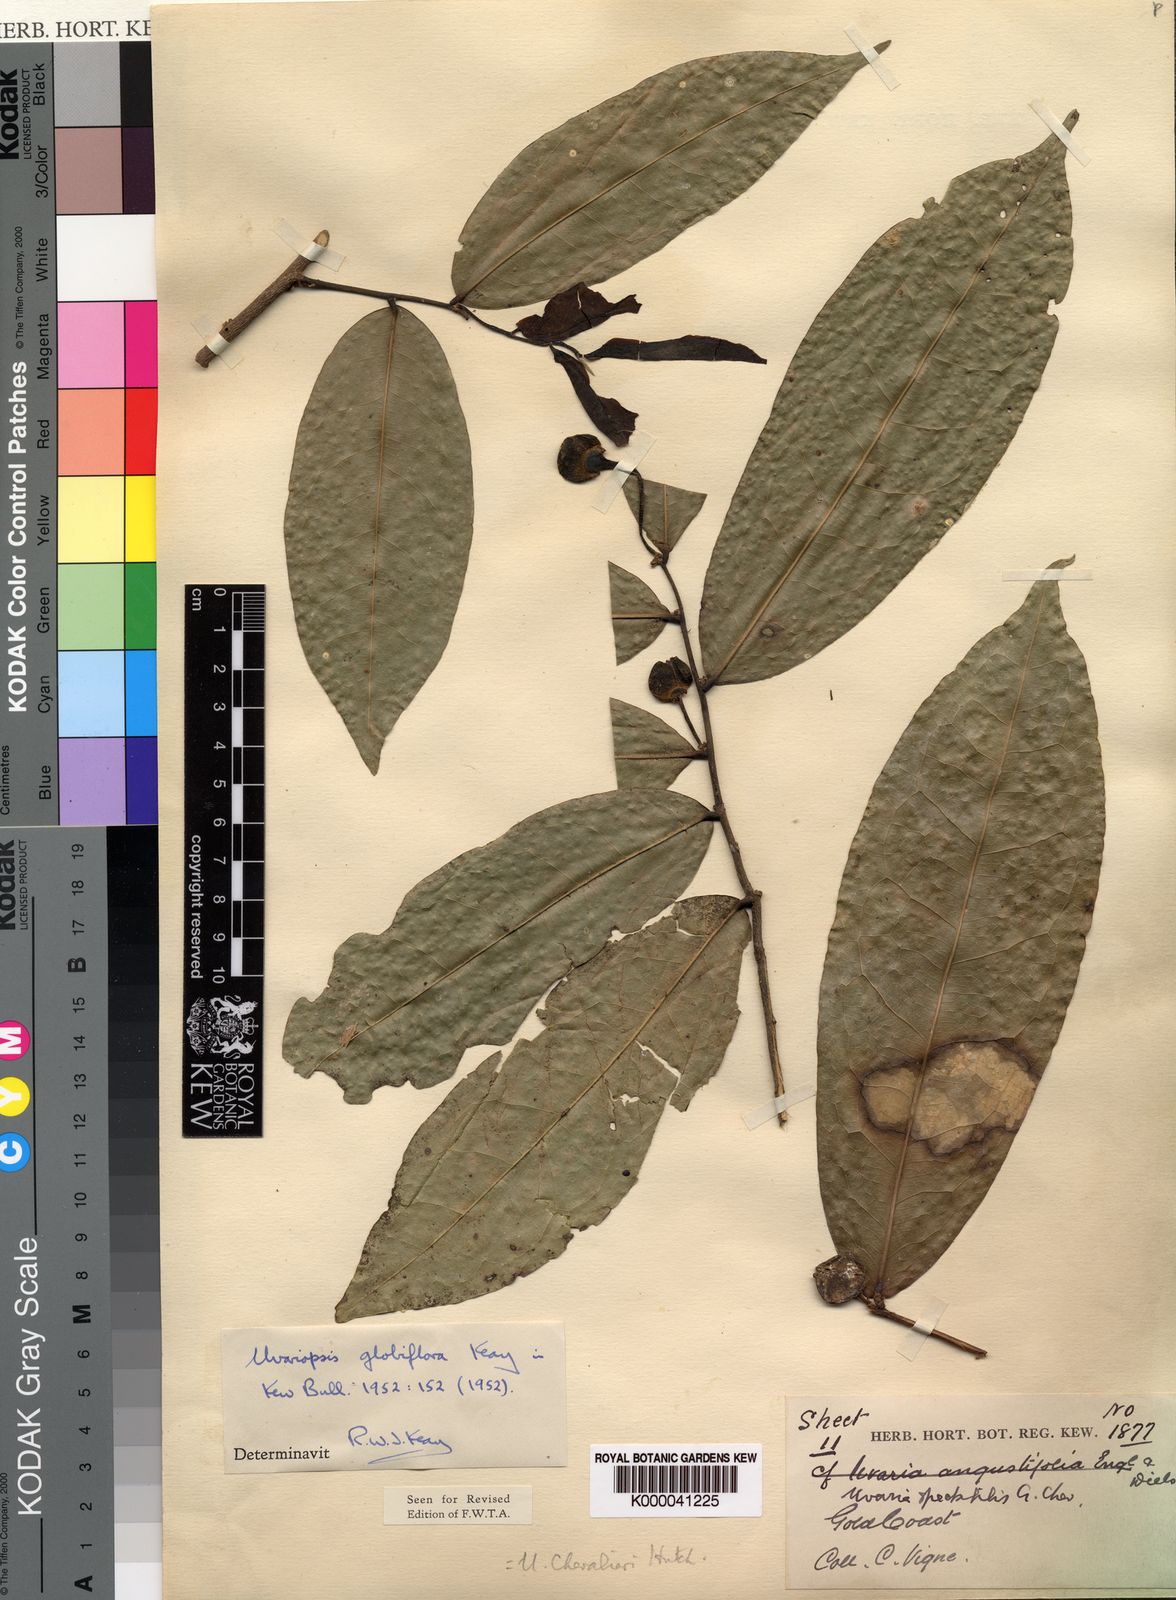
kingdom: Plantae
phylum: Tracheophyta
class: Magnoliopsida
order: Magnoliales
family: Annonaceae
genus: Uvaria
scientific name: Uvaria
